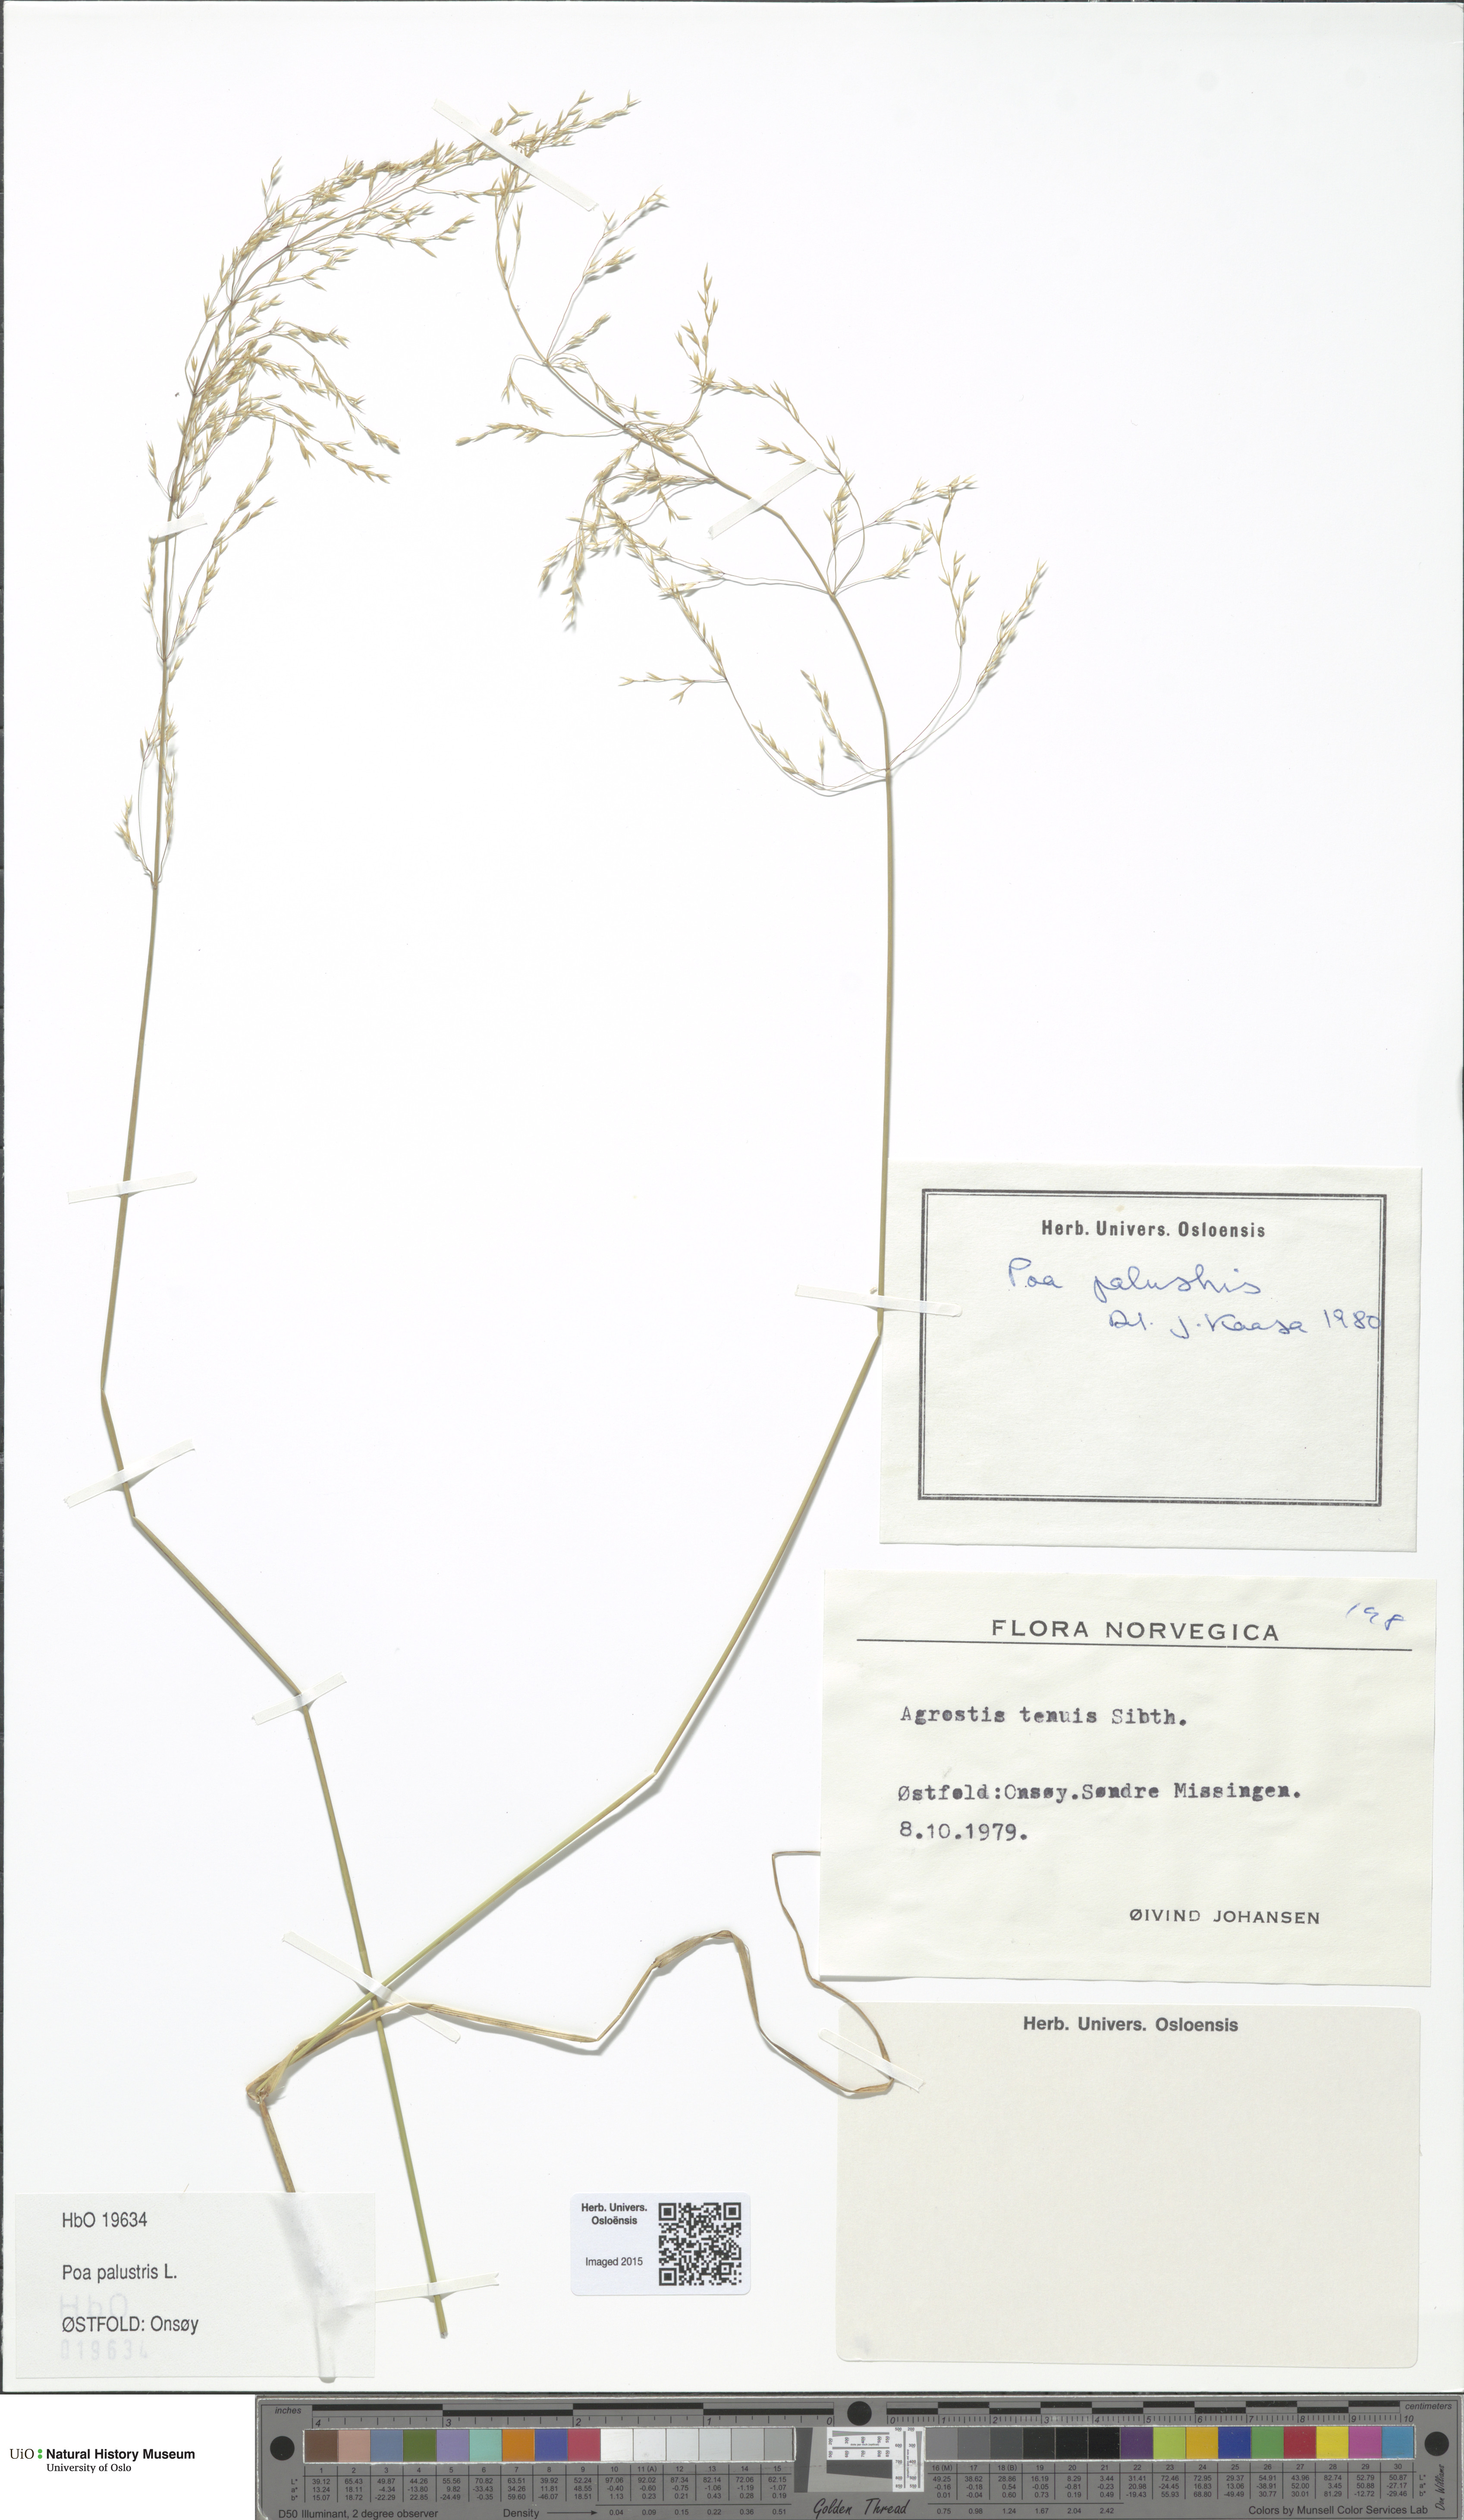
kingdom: Plantae
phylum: Tracheophyta
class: Liliopsida
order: Poales
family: Poaceae
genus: Poa
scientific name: Poa palustris
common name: Swamp meadow-grass
